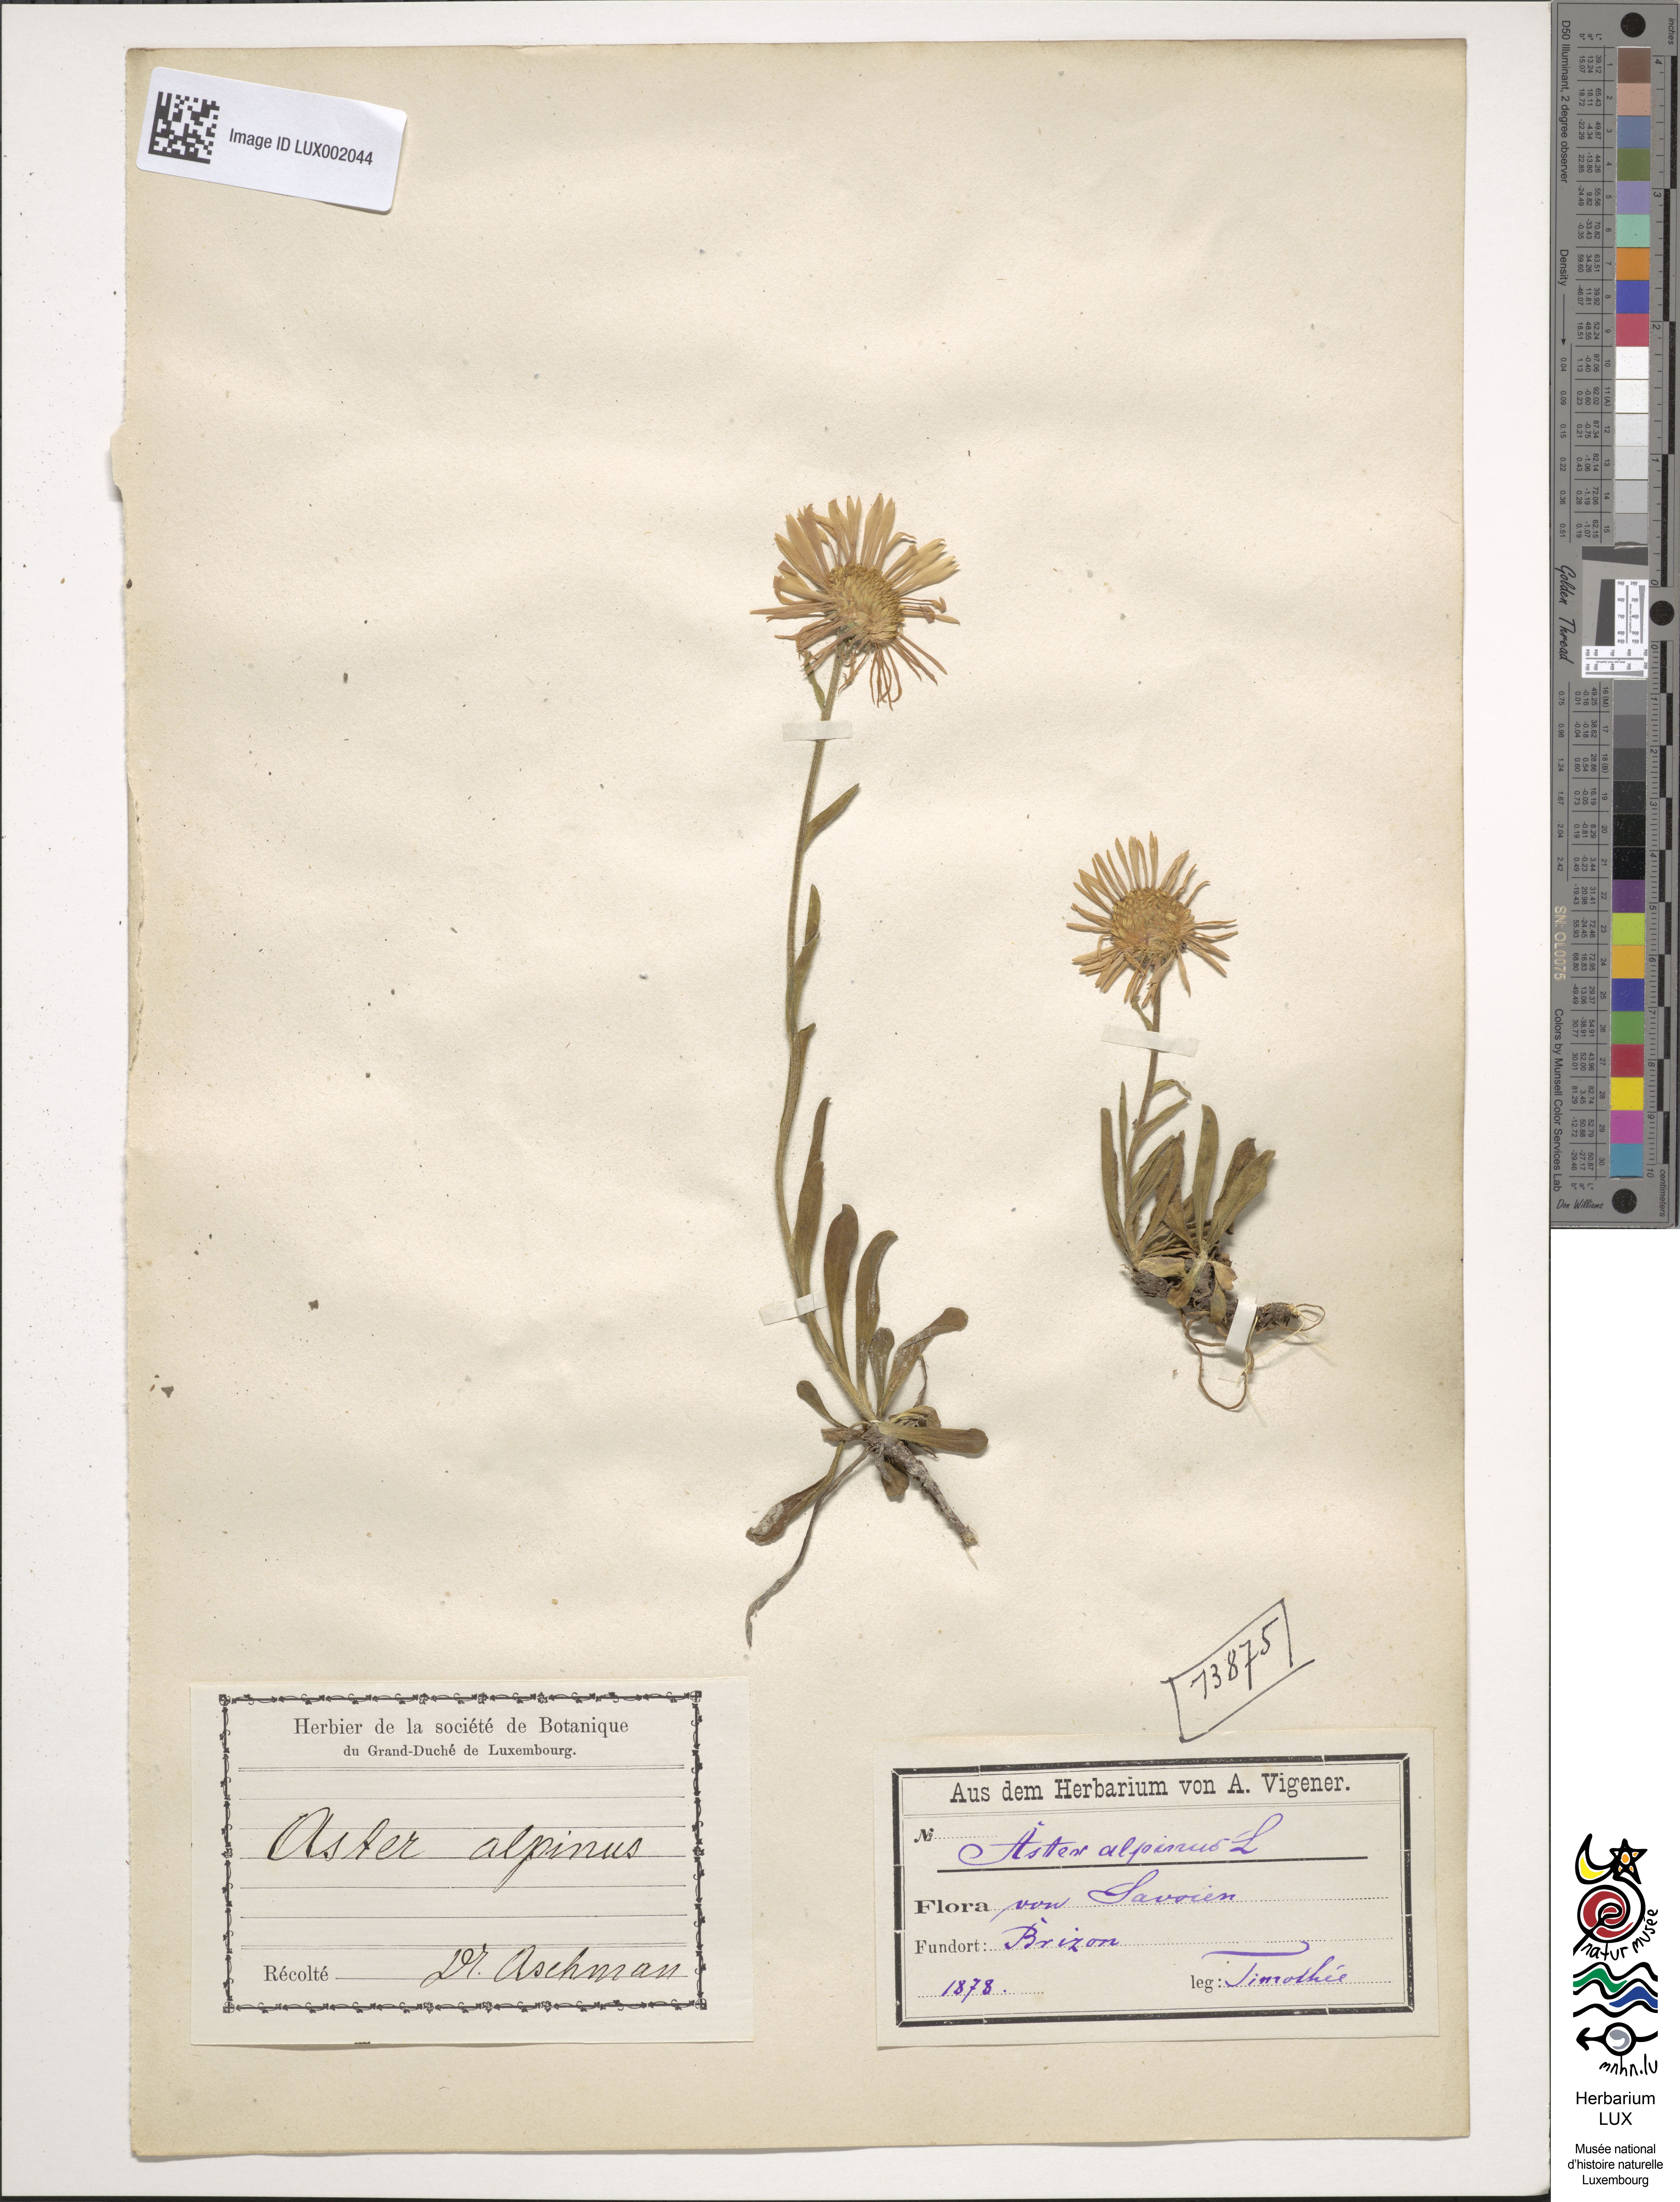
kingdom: Plantae
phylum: Tracheophyta
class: Magnoliopsida
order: Asterales
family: Asteraceae
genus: Aster
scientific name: Aster alpinus
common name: Alpine aster
